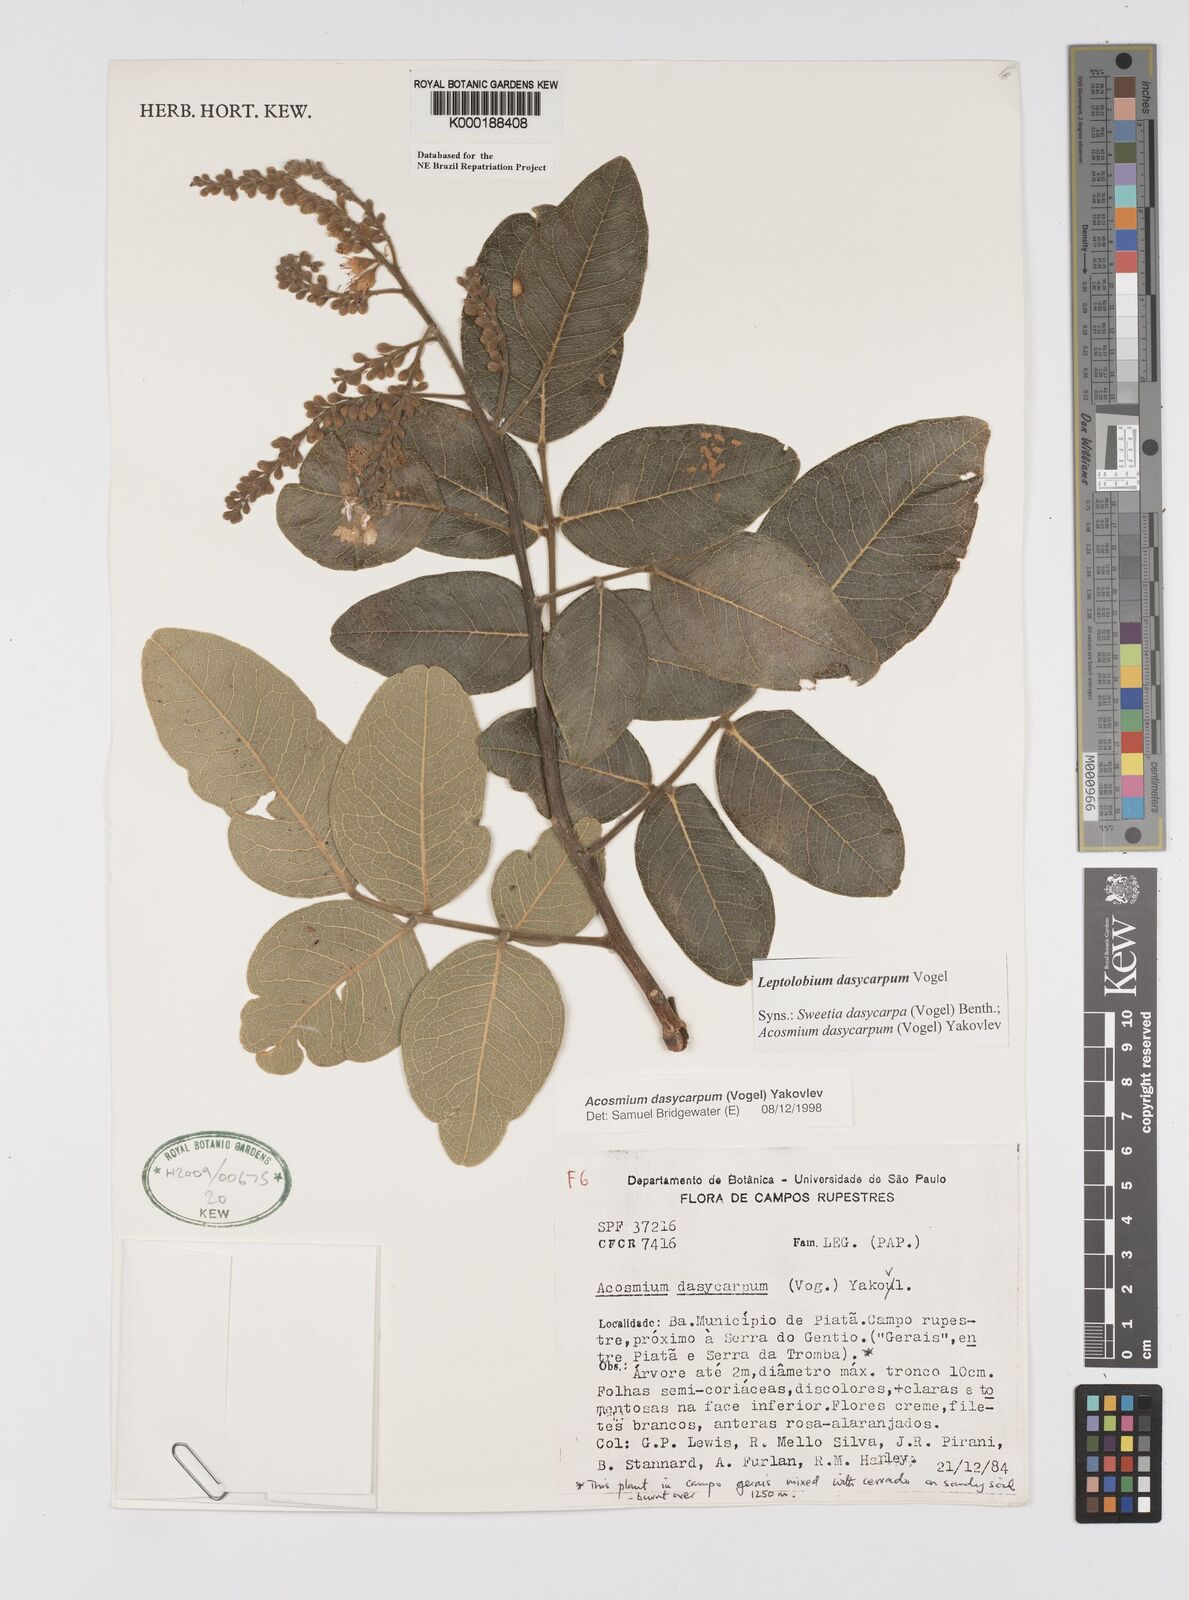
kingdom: Plantae
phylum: Tracheophyta
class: Magnoliopsida
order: Fabales
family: Fabaceae
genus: Leptolobium
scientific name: Leptolobium dasycarpum
